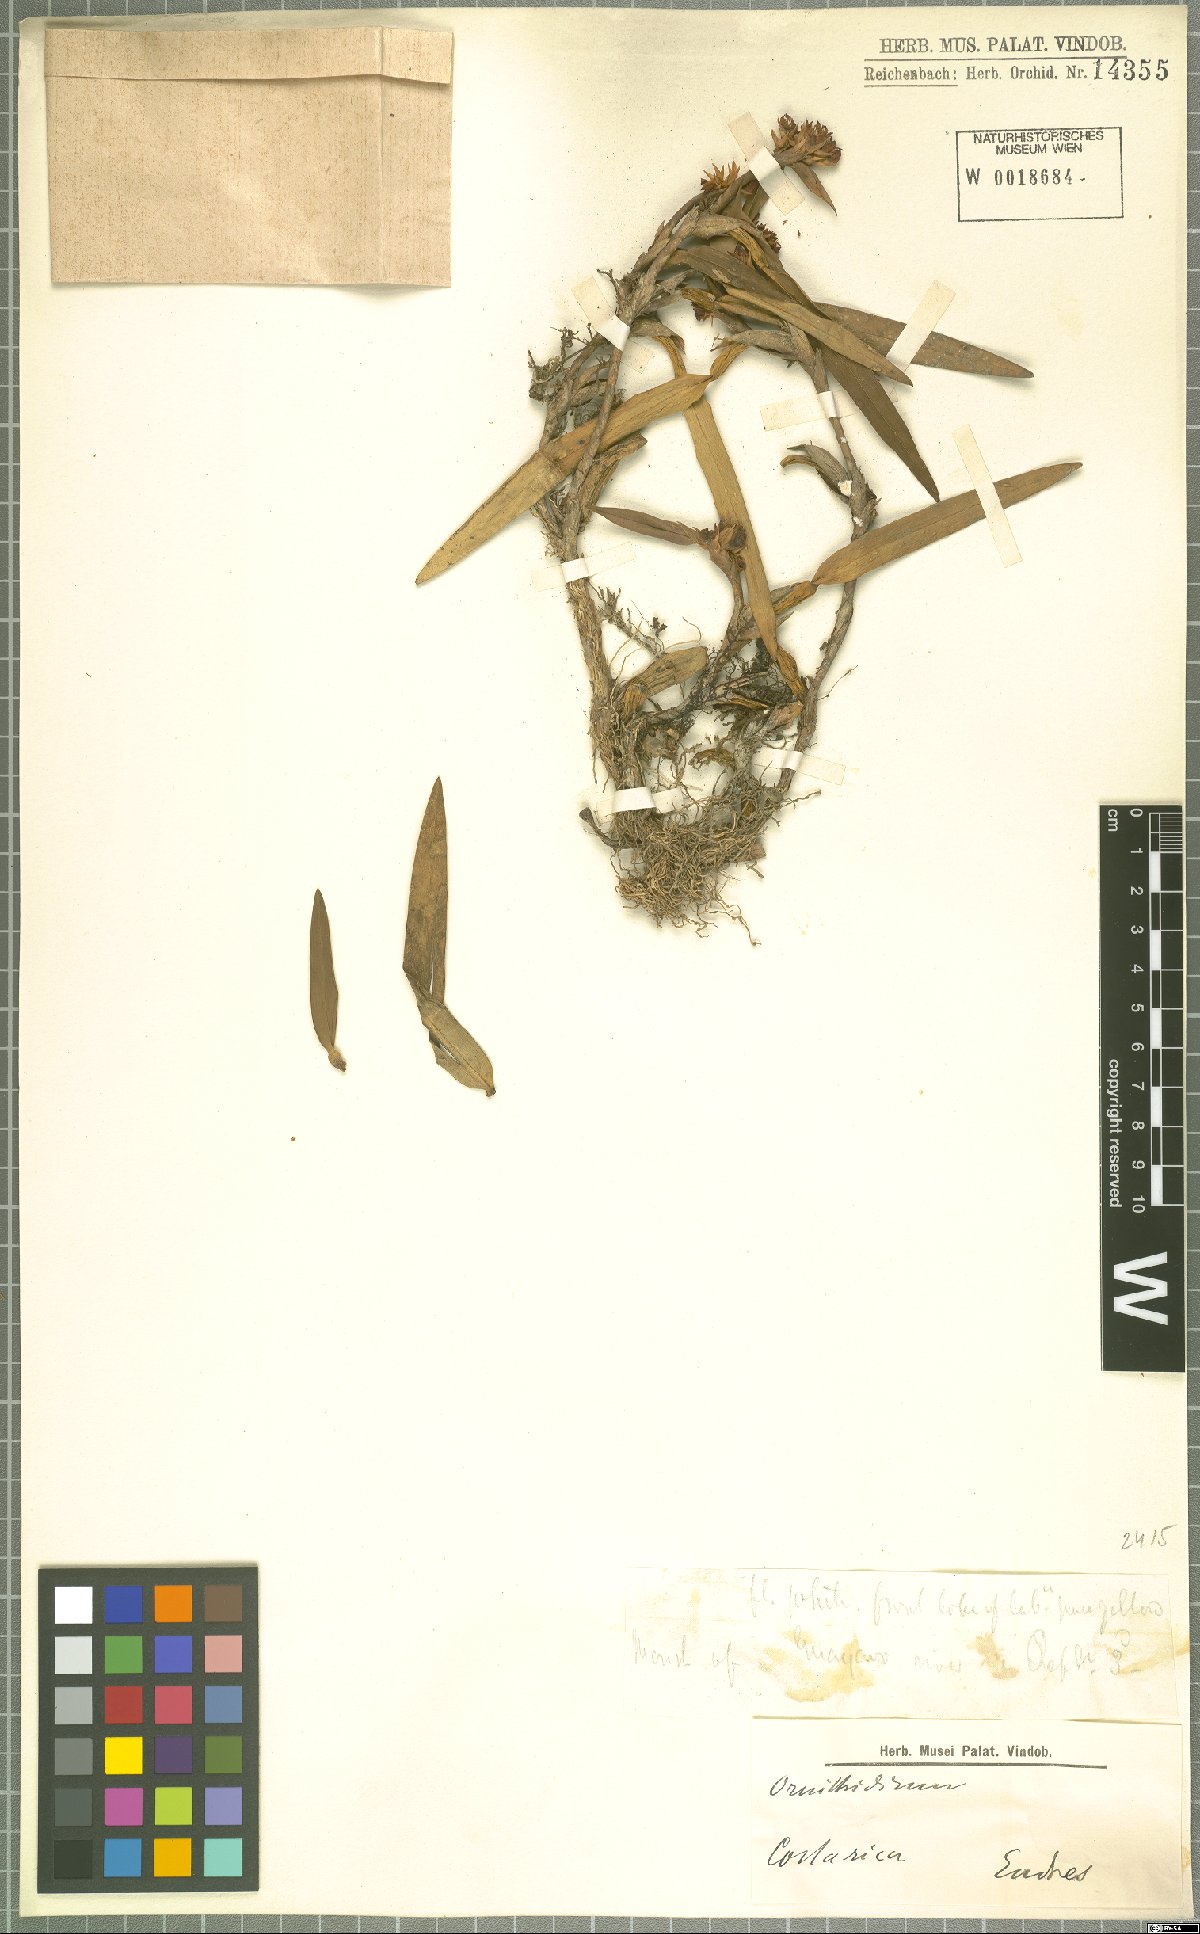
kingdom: Plantae
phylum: Tracheophyta
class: Liliopsida
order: Asparagales
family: Orchidaceae
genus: Maxillaria
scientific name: Maxillaria
